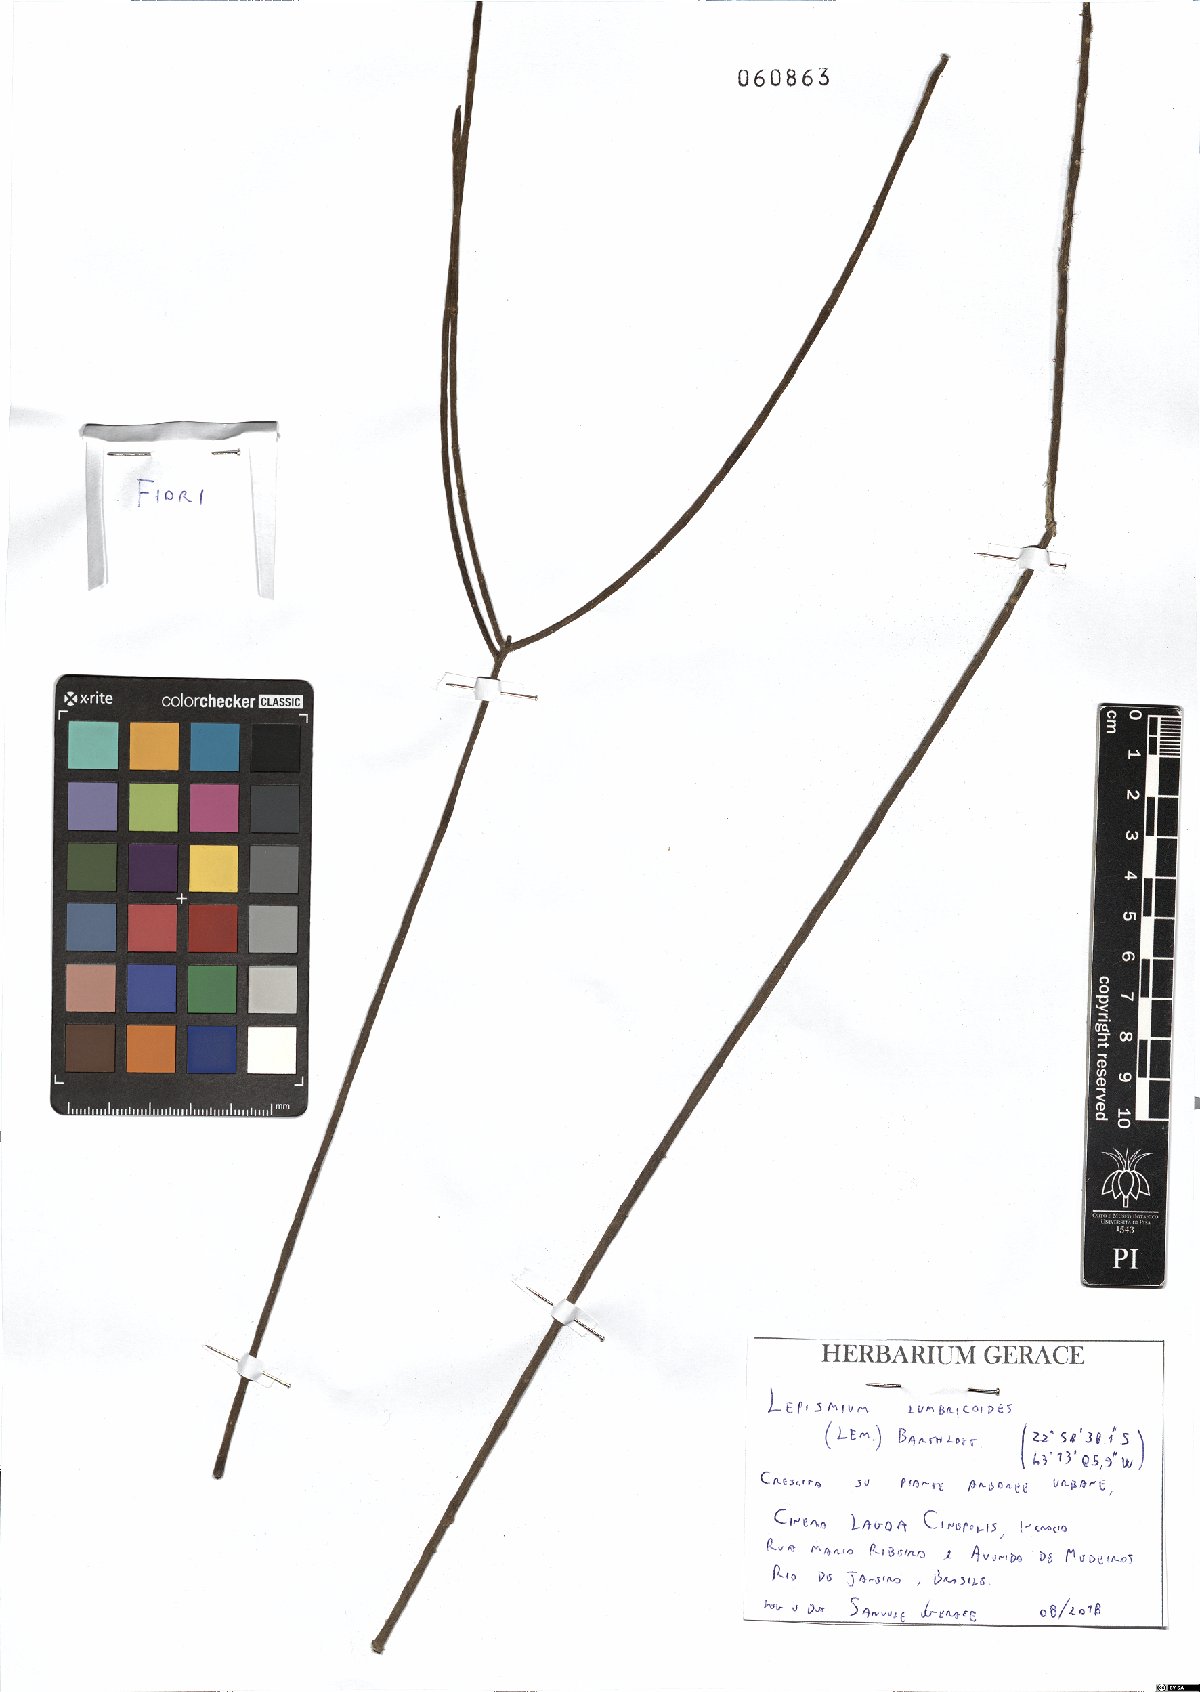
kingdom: Plantae
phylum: Tracheophyta
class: Magnoliopsida
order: Caryophyllales
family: Cactaceae
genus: Lepismium
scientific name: Lepismium lumbricoides
